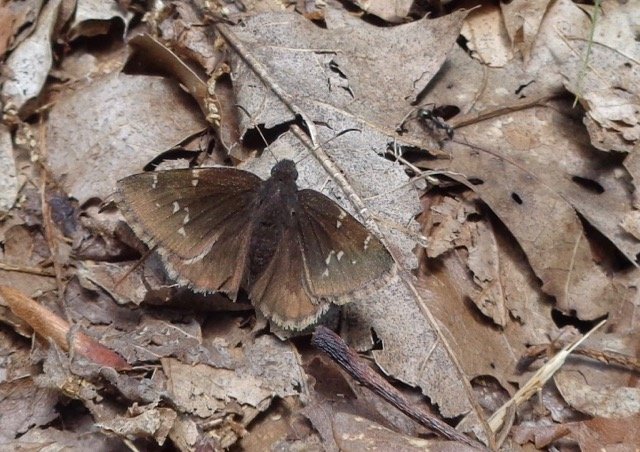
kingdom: Animalia
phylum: Arthropoda
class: Insecta
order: Lepidoptera
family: Hesperiidae
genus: Autochton
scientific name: Autochton
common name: Northern Cloudywing
